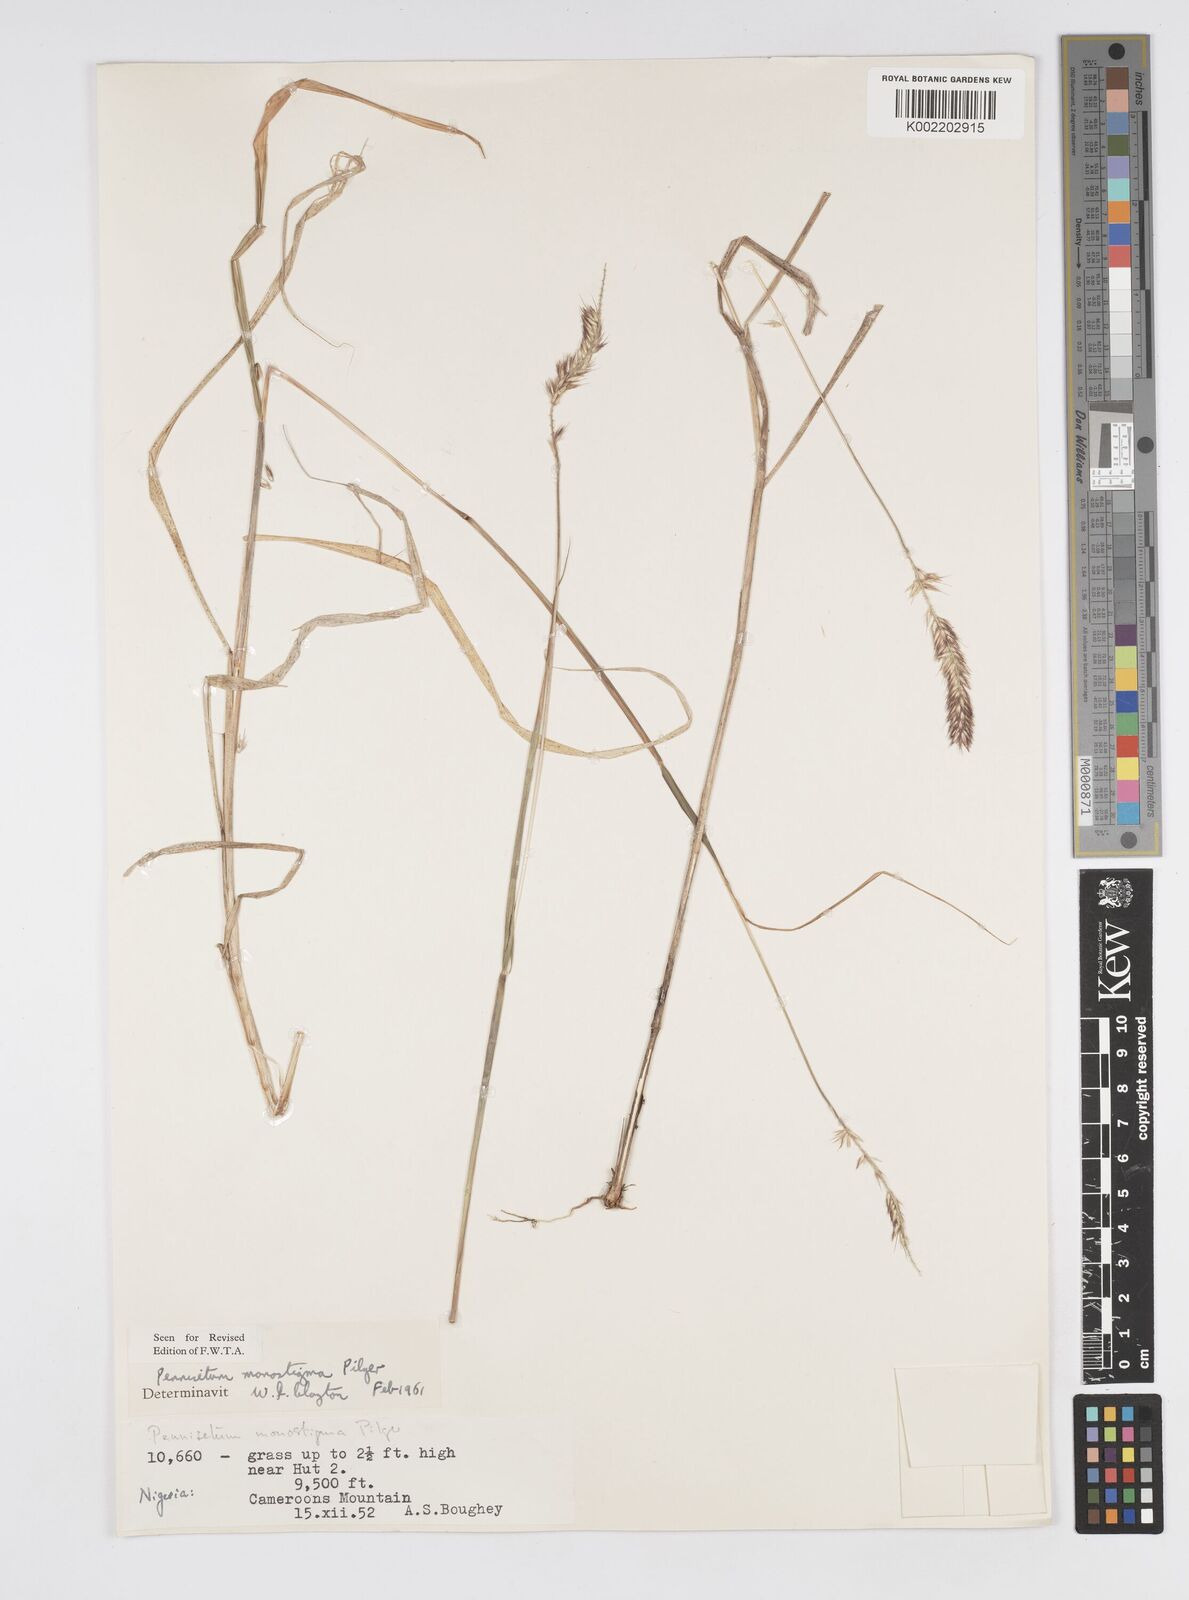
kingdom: Plantae
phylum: Tracheophyta
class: Liliopsida
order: Poales
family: Poaceae
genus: Cenchrus
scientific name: Cenchrus monostigma
